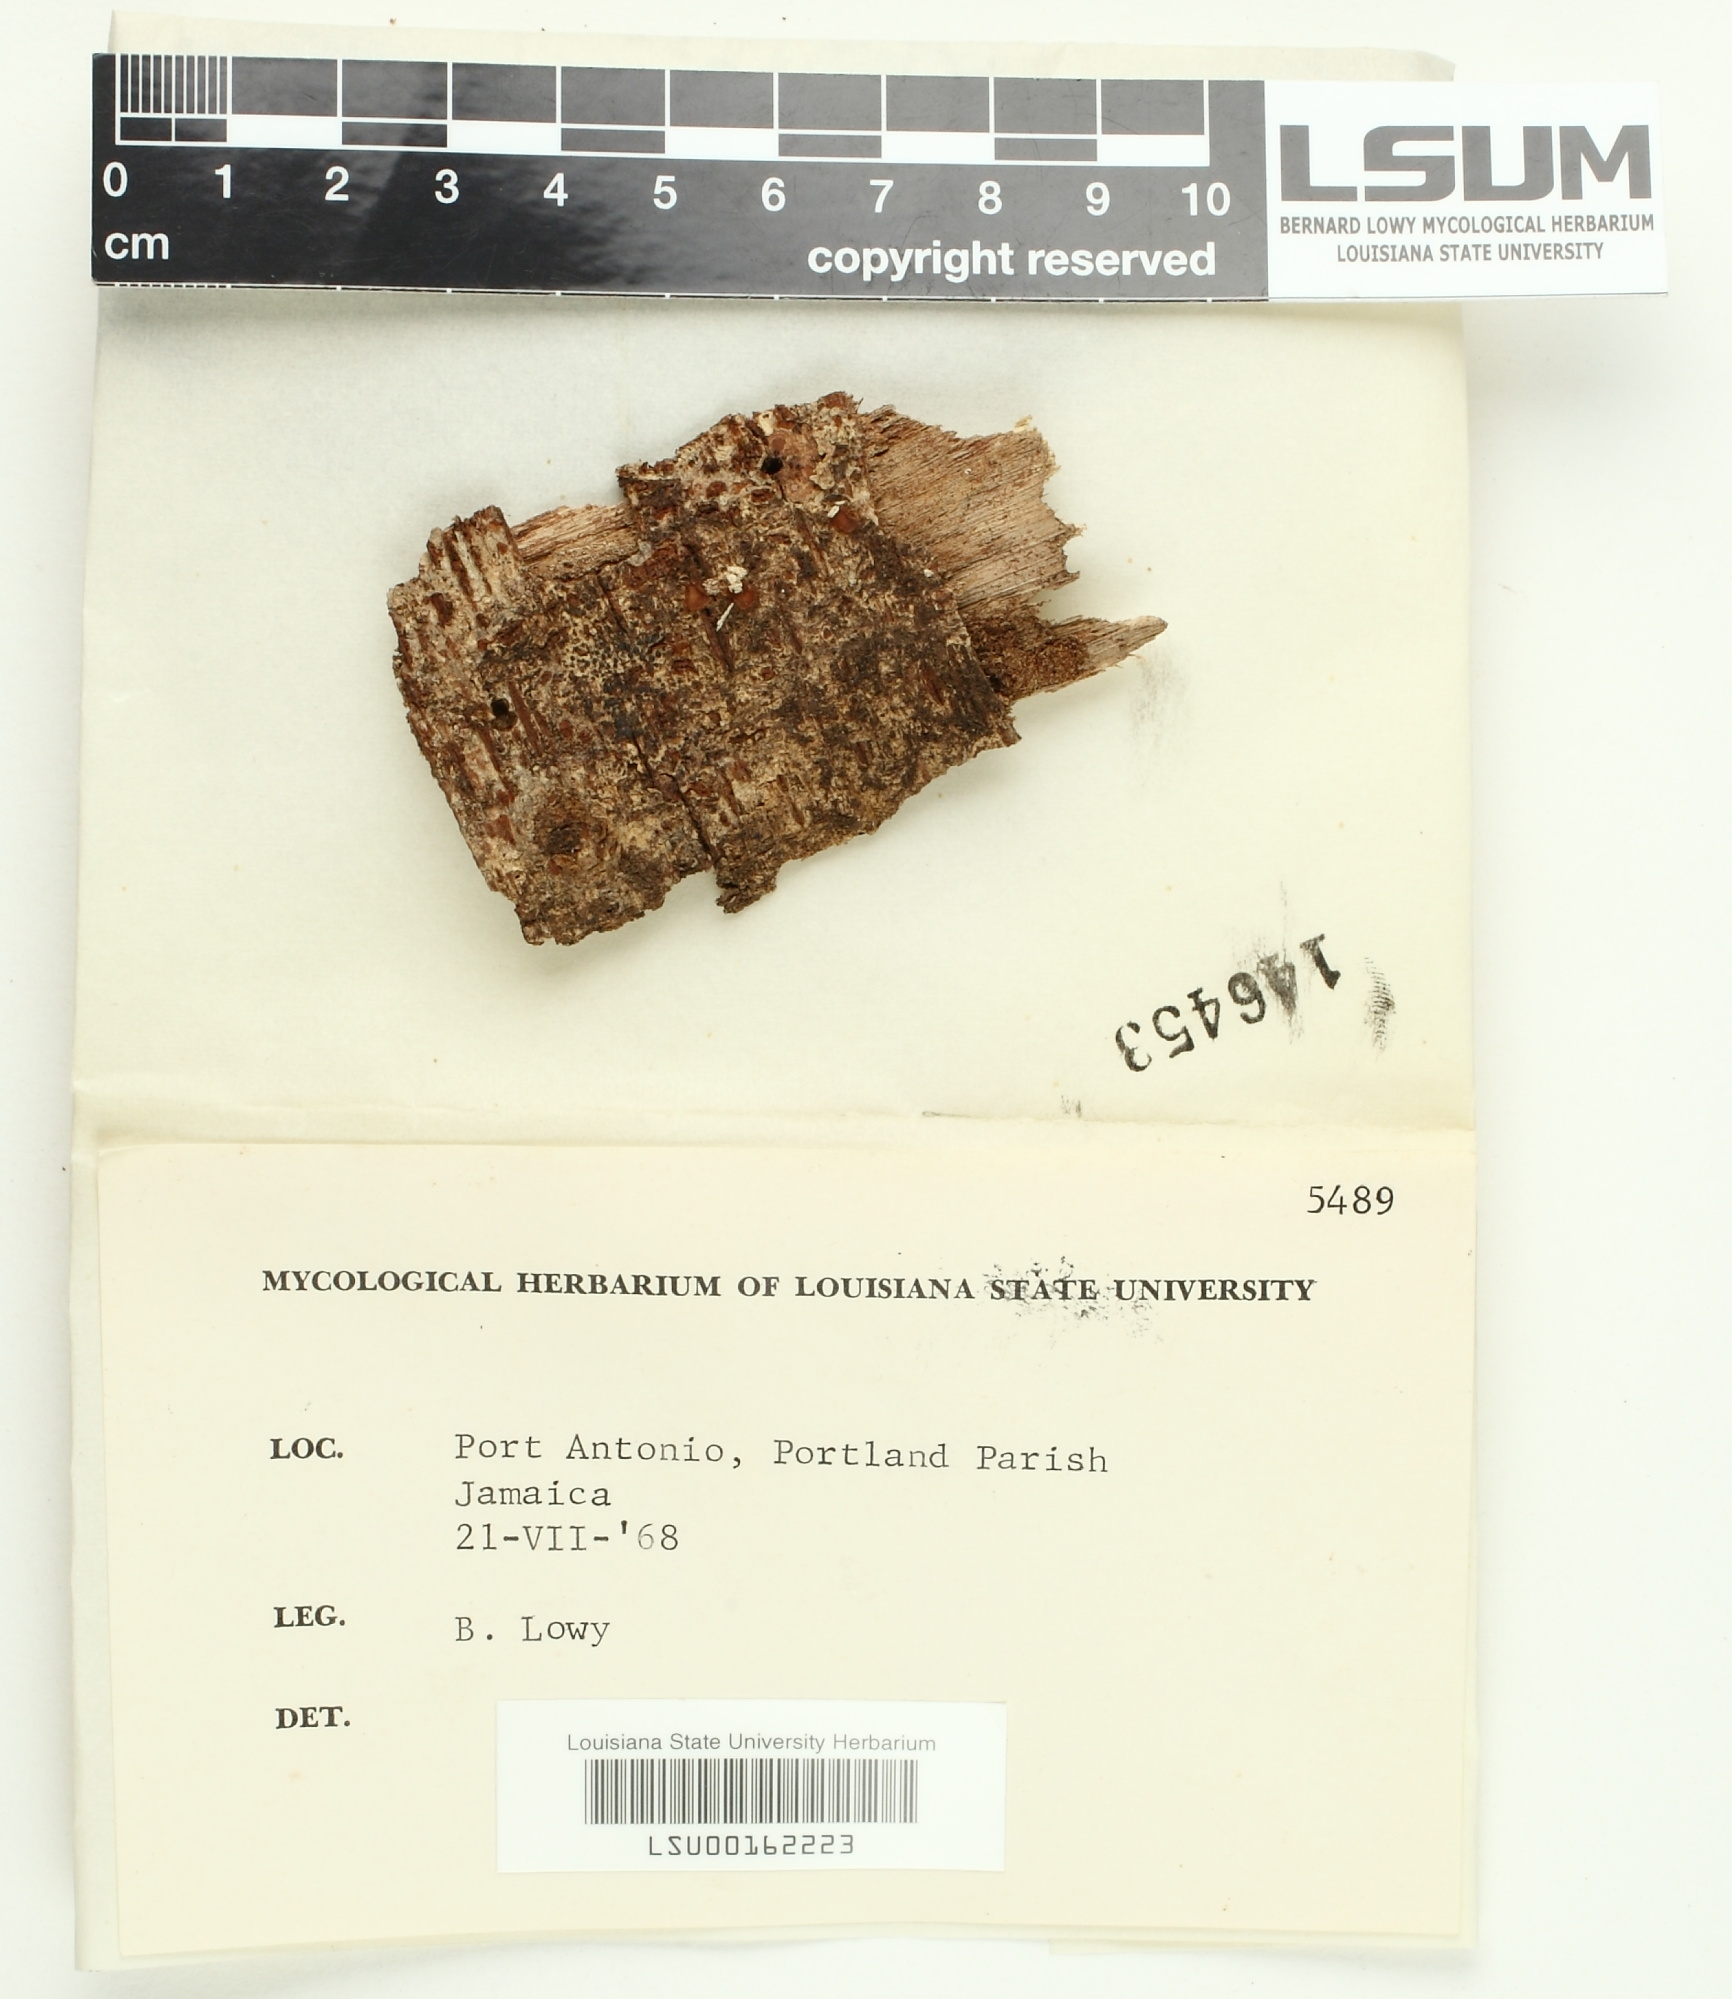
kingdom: Fungi
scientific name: Fungi
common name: Fungi
